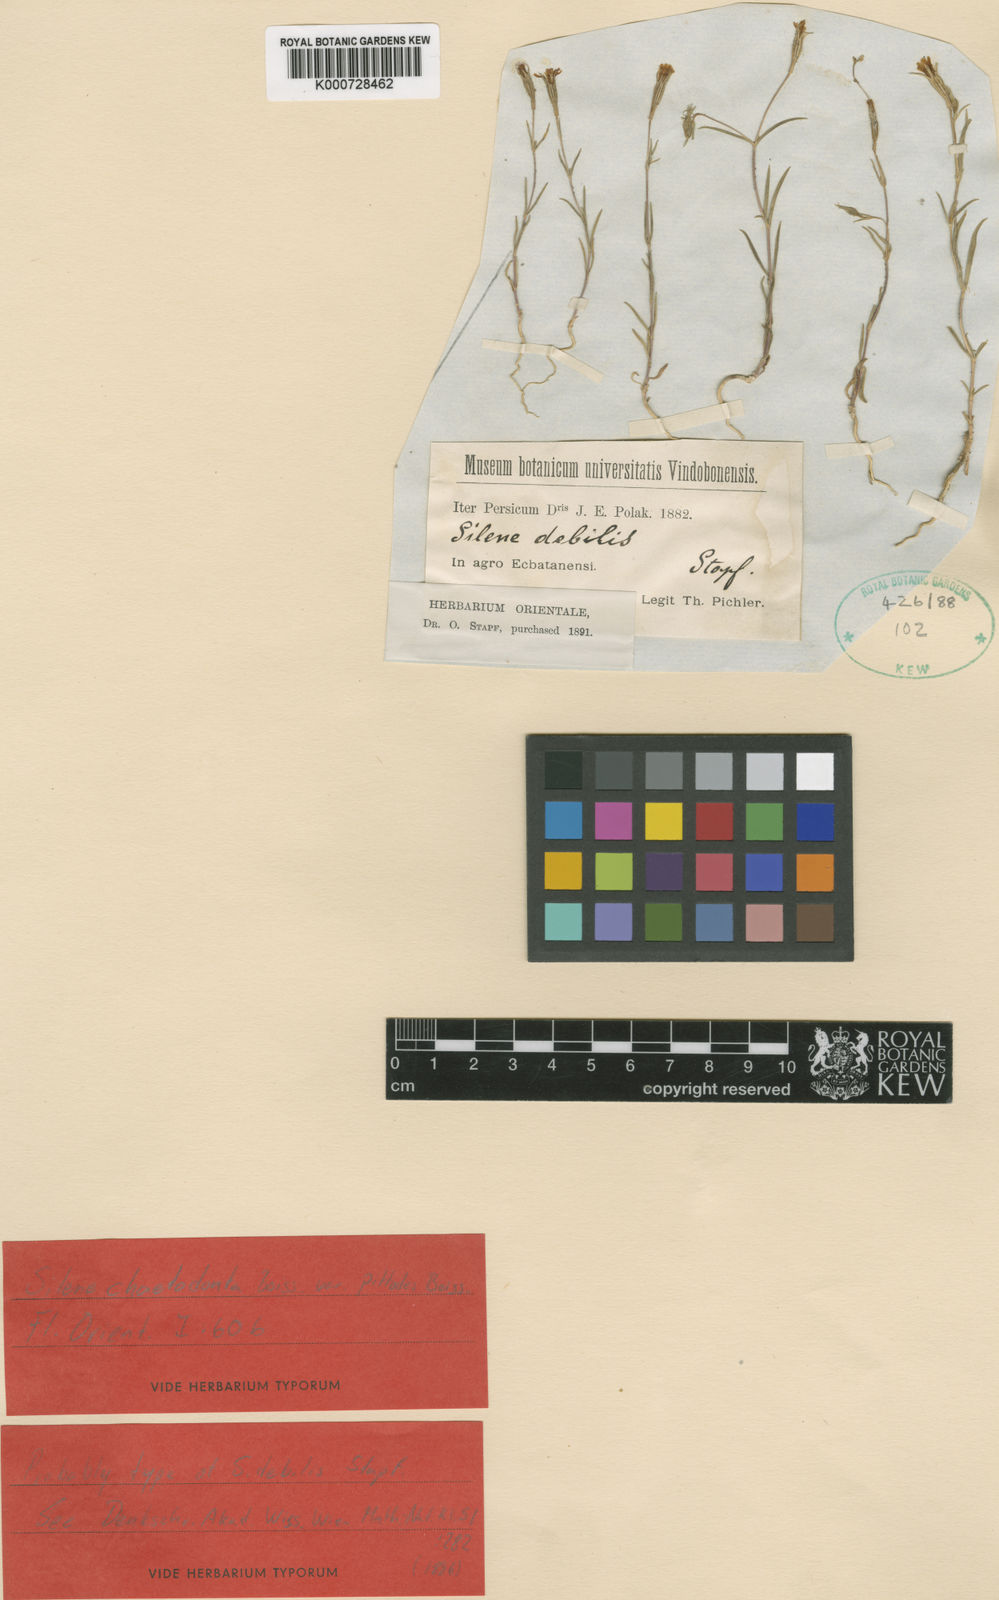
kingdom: Plantae
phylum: Tracheophyta
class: Magnoliopsida
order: Caryophyllales
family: Caryophyllaceae
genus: Silene
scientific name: Silene chaetodonta
